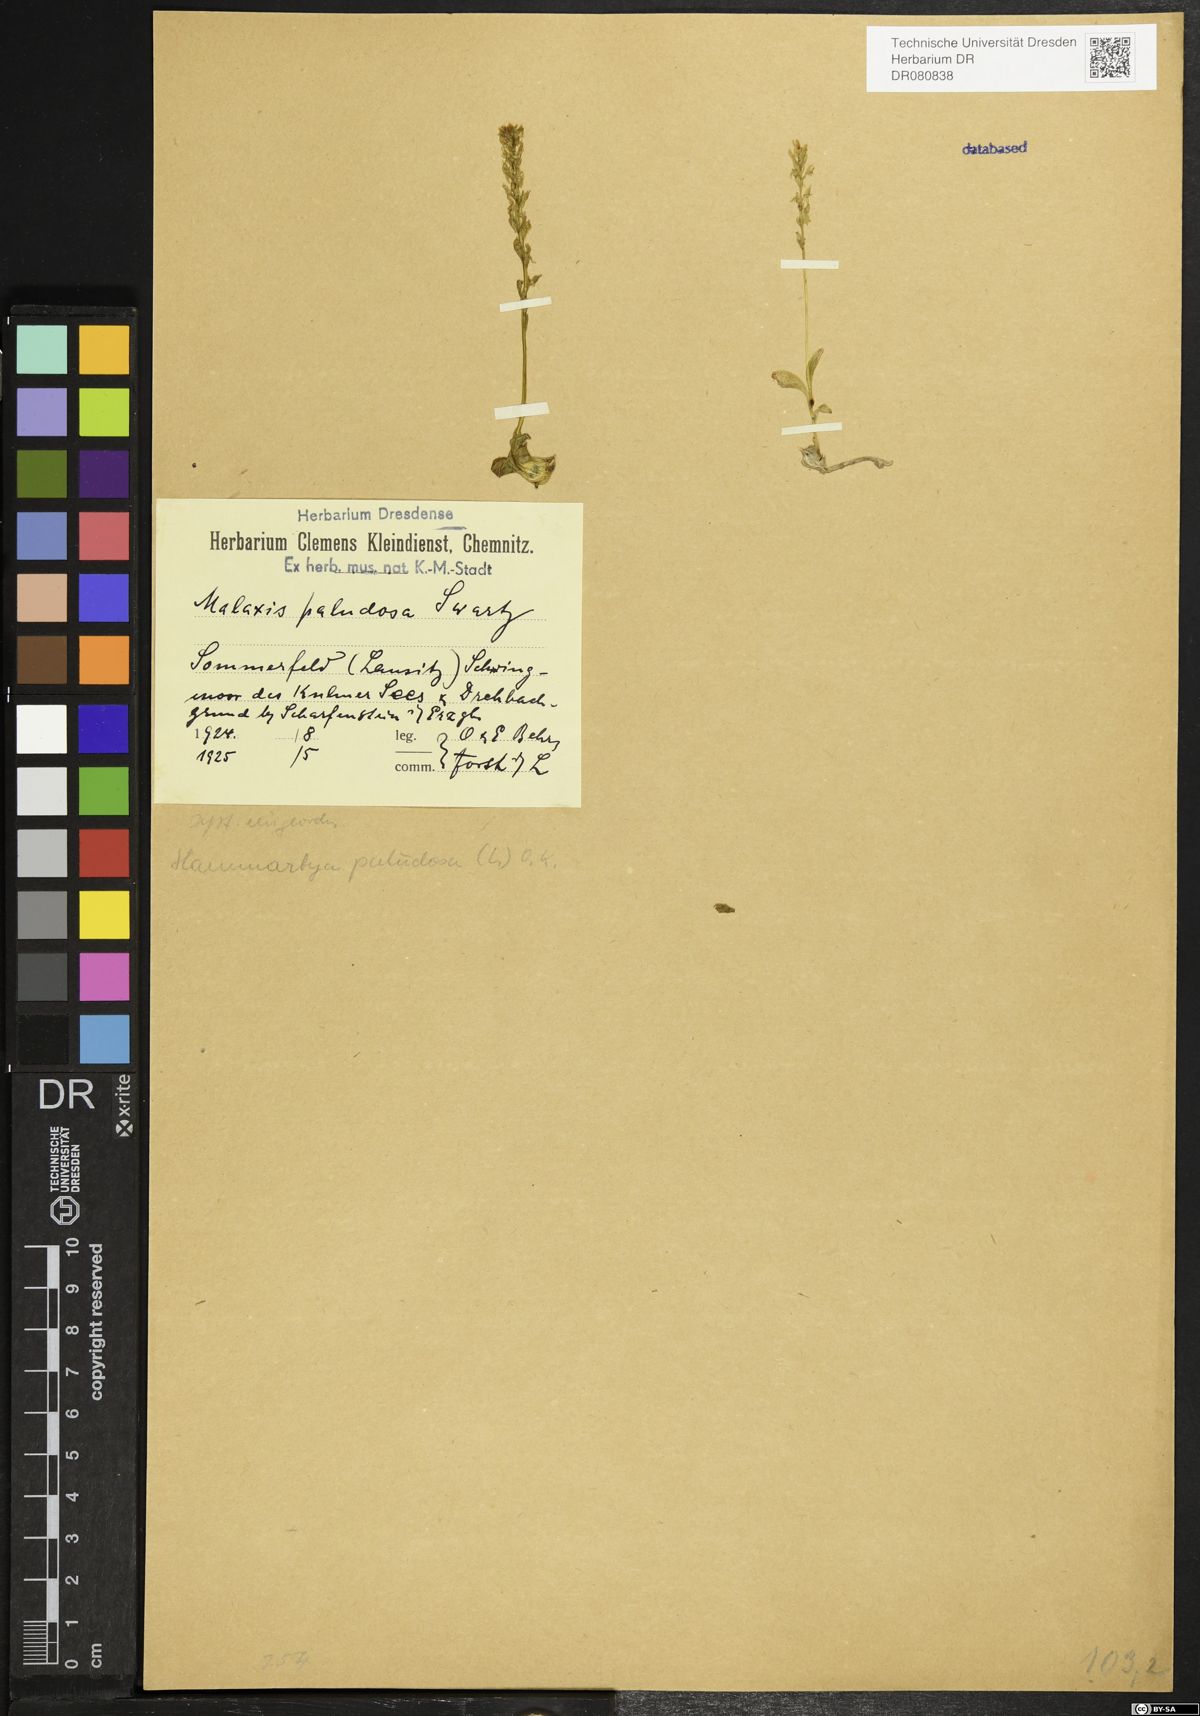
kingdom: Plantae
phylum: Tracheophyta
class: Liliopsida
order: Asparagales
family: Orchidaceae
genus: Hammarbya
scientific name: Hammarbya paludosa
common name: Bog orchid
